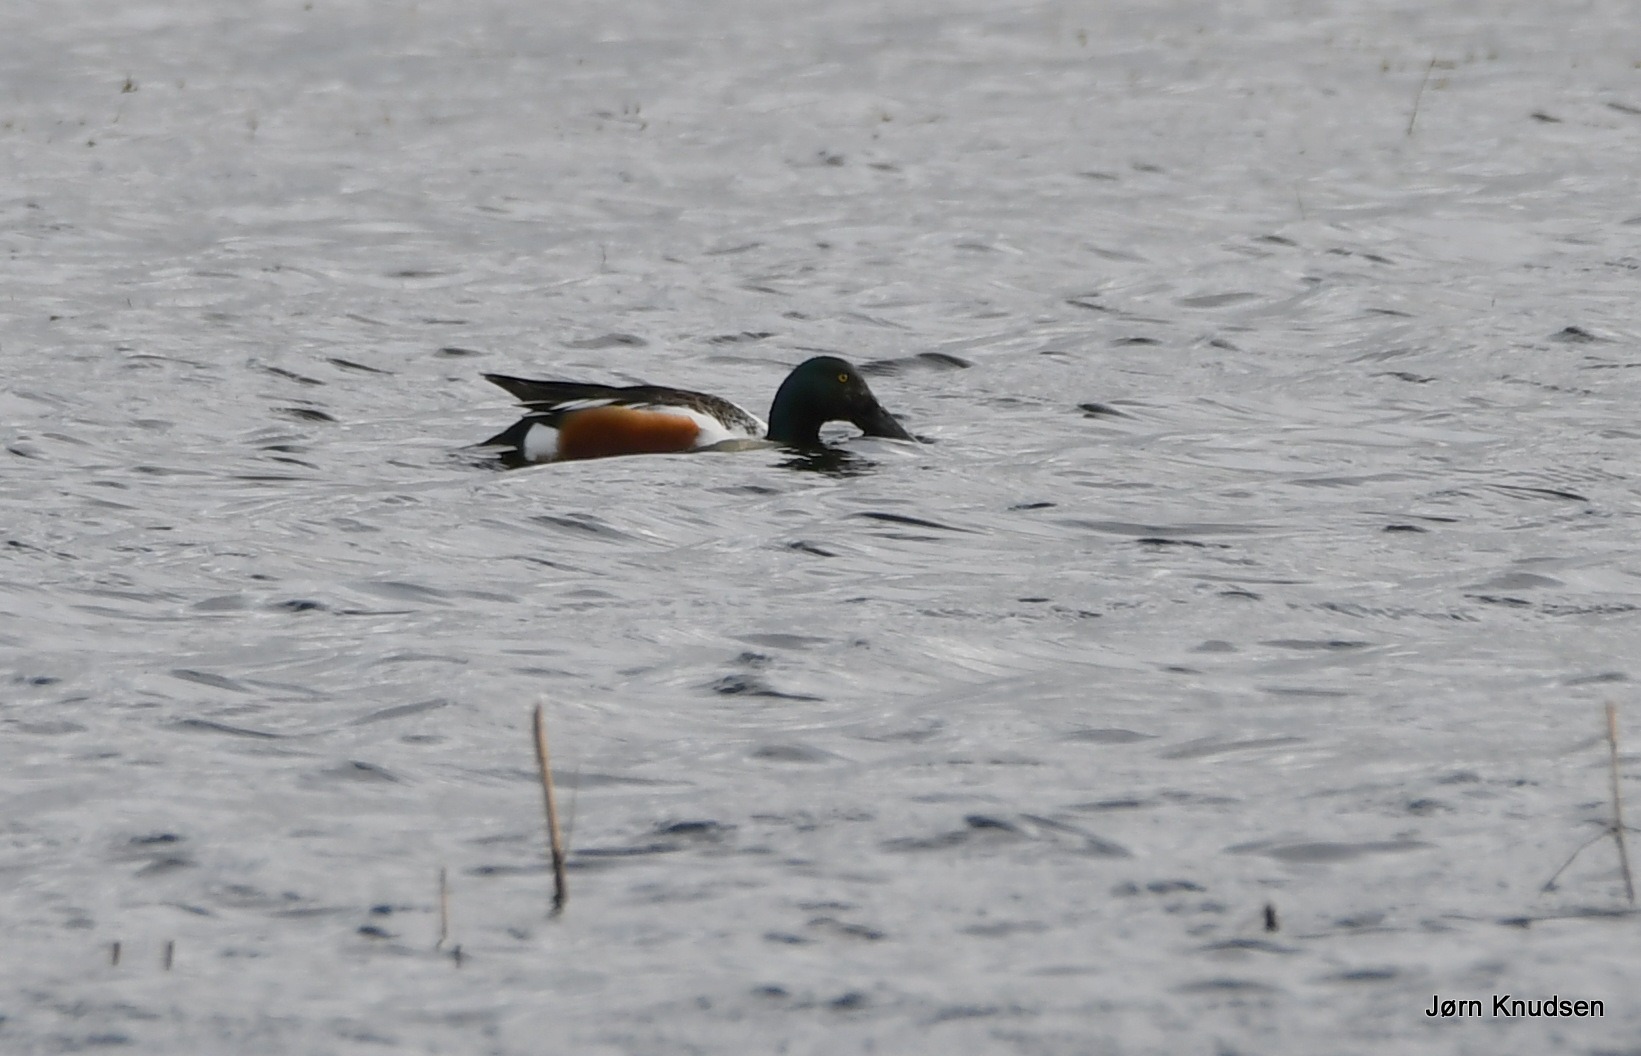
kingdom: Animalia
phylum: Chordata
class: Aves
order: Anseriformes
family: Anatidae
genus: Spatula
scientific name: Spatula clypeata
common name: Skeand
